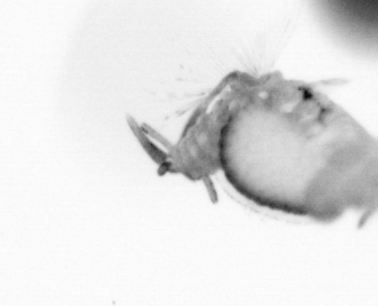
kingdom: Animalia
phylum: Annelida
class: Polychaeta
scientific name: Polychaeta
